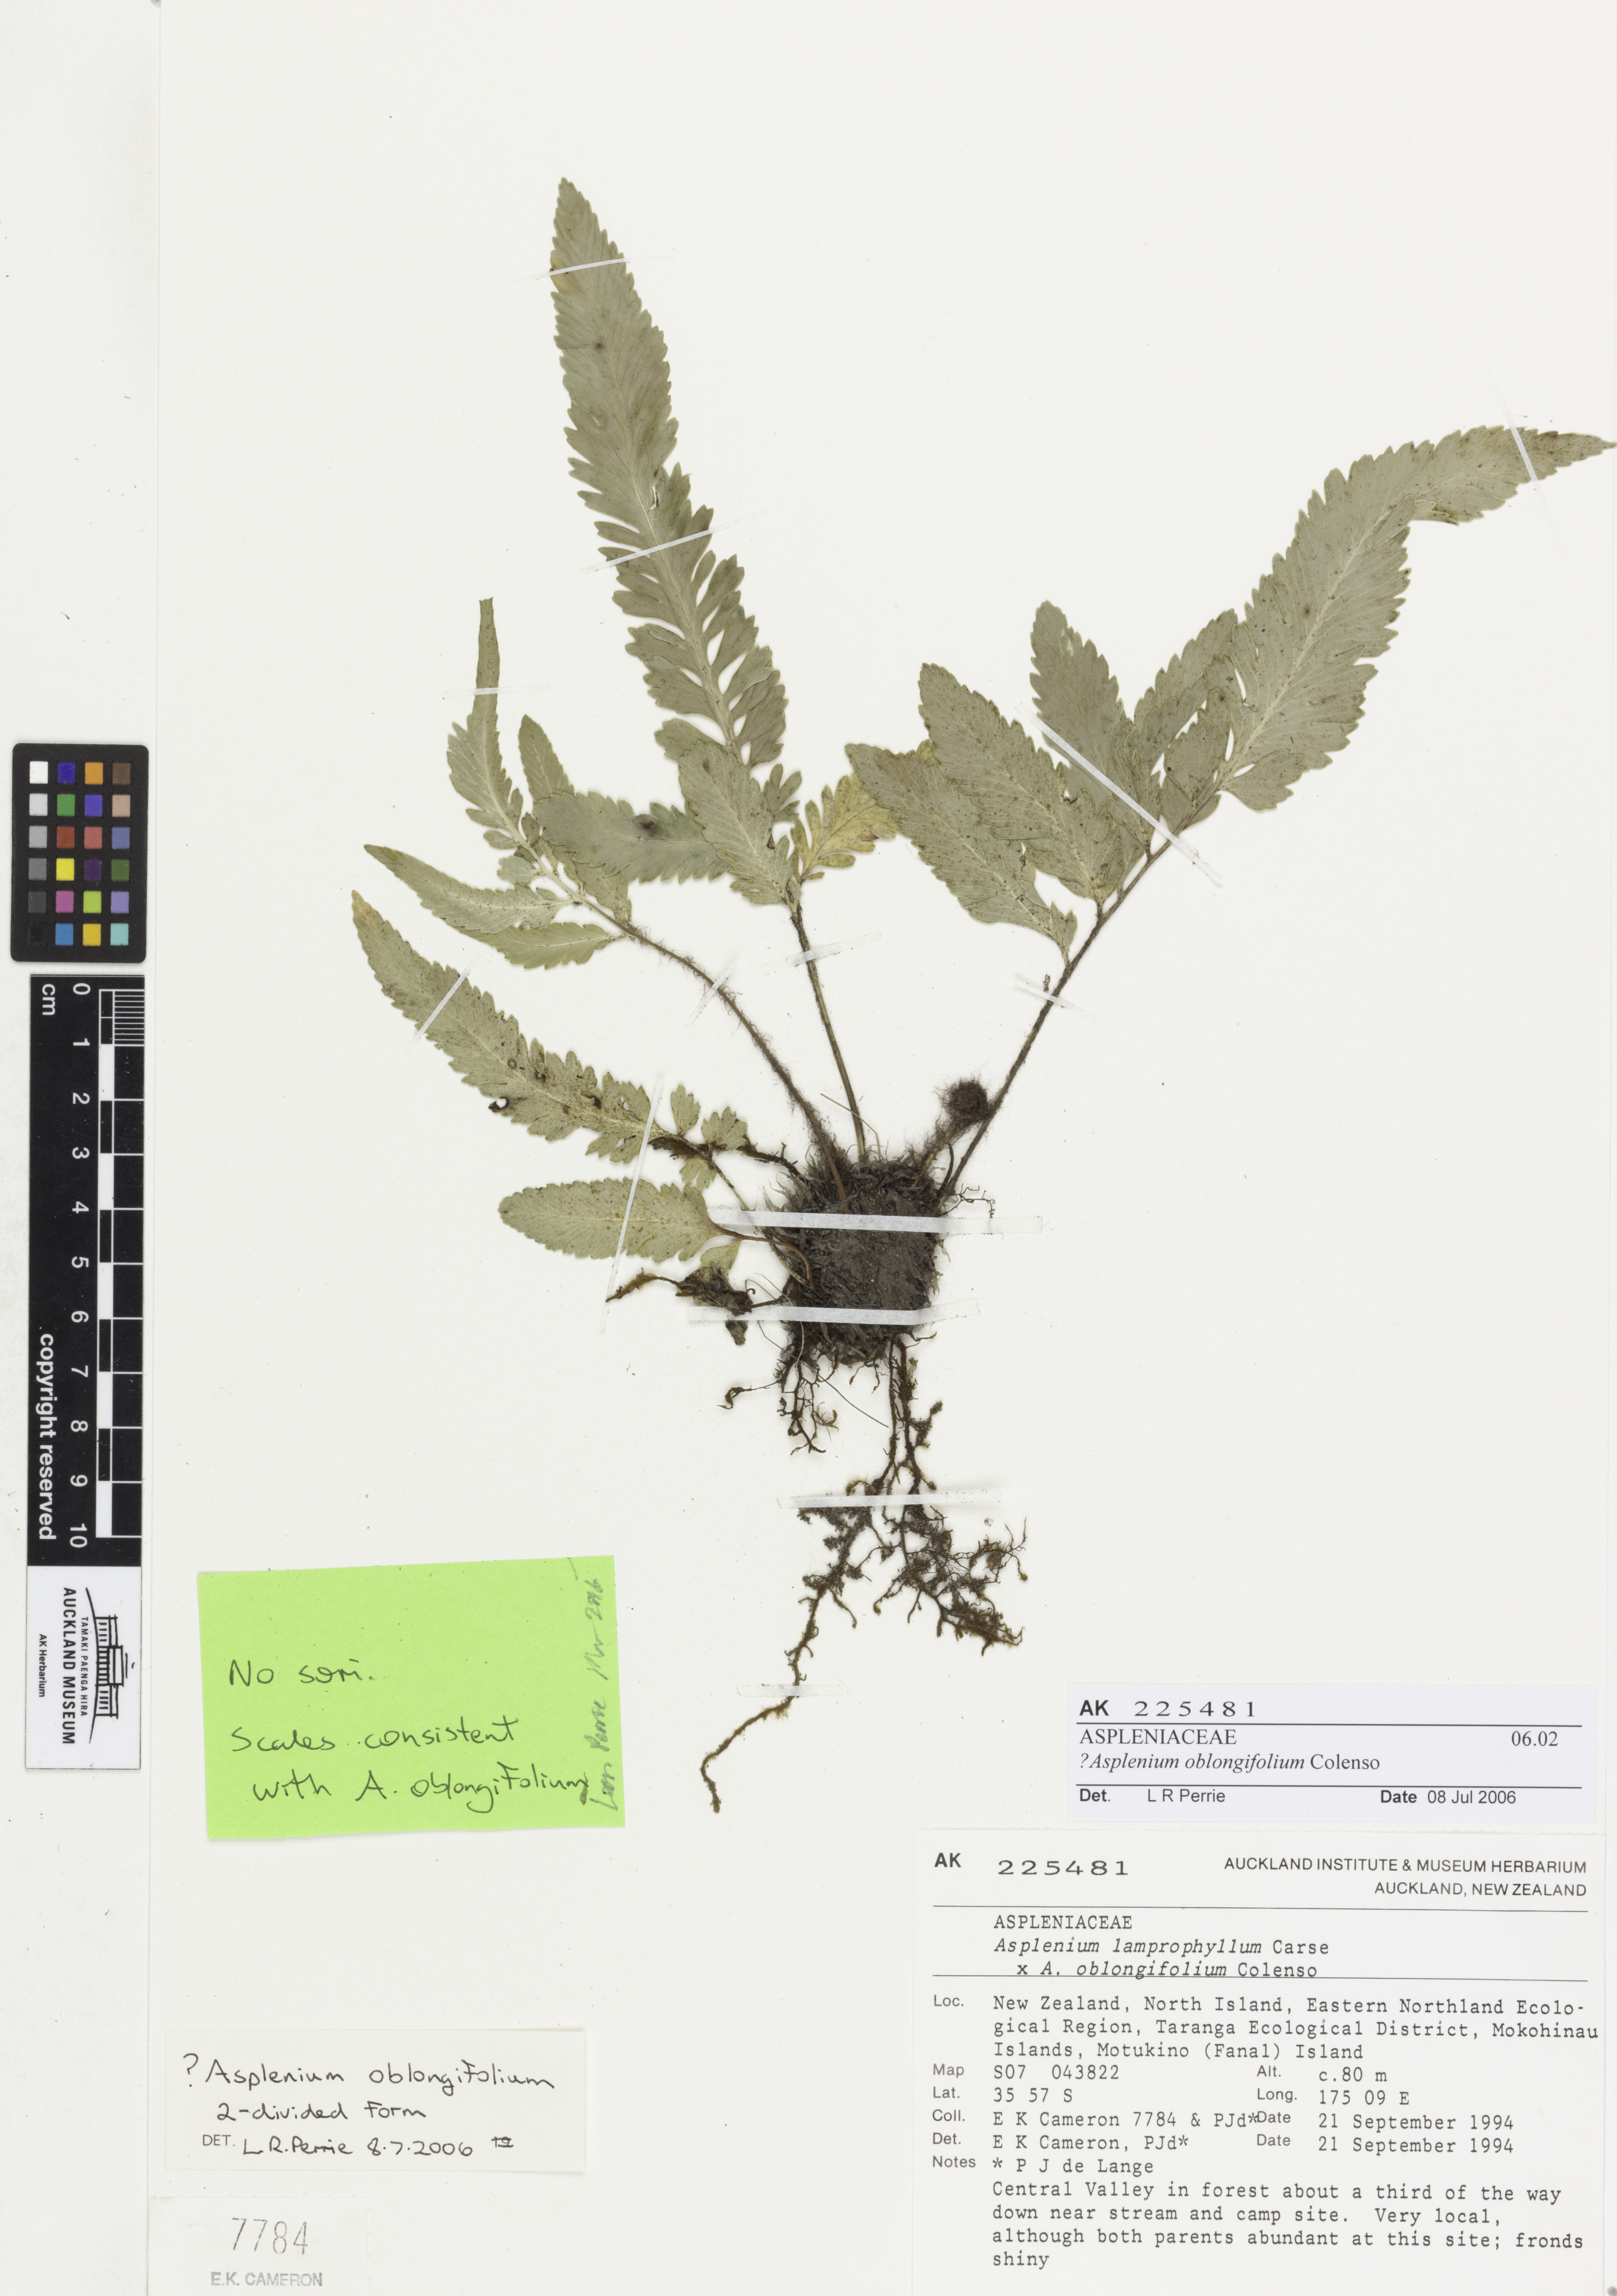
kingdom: Plantae
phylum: Tracheophyta
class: Polypodiopsida
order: Polypodiales
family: Aspleniaceae
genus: Asplenium
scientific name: Asplenium oblongifolium
